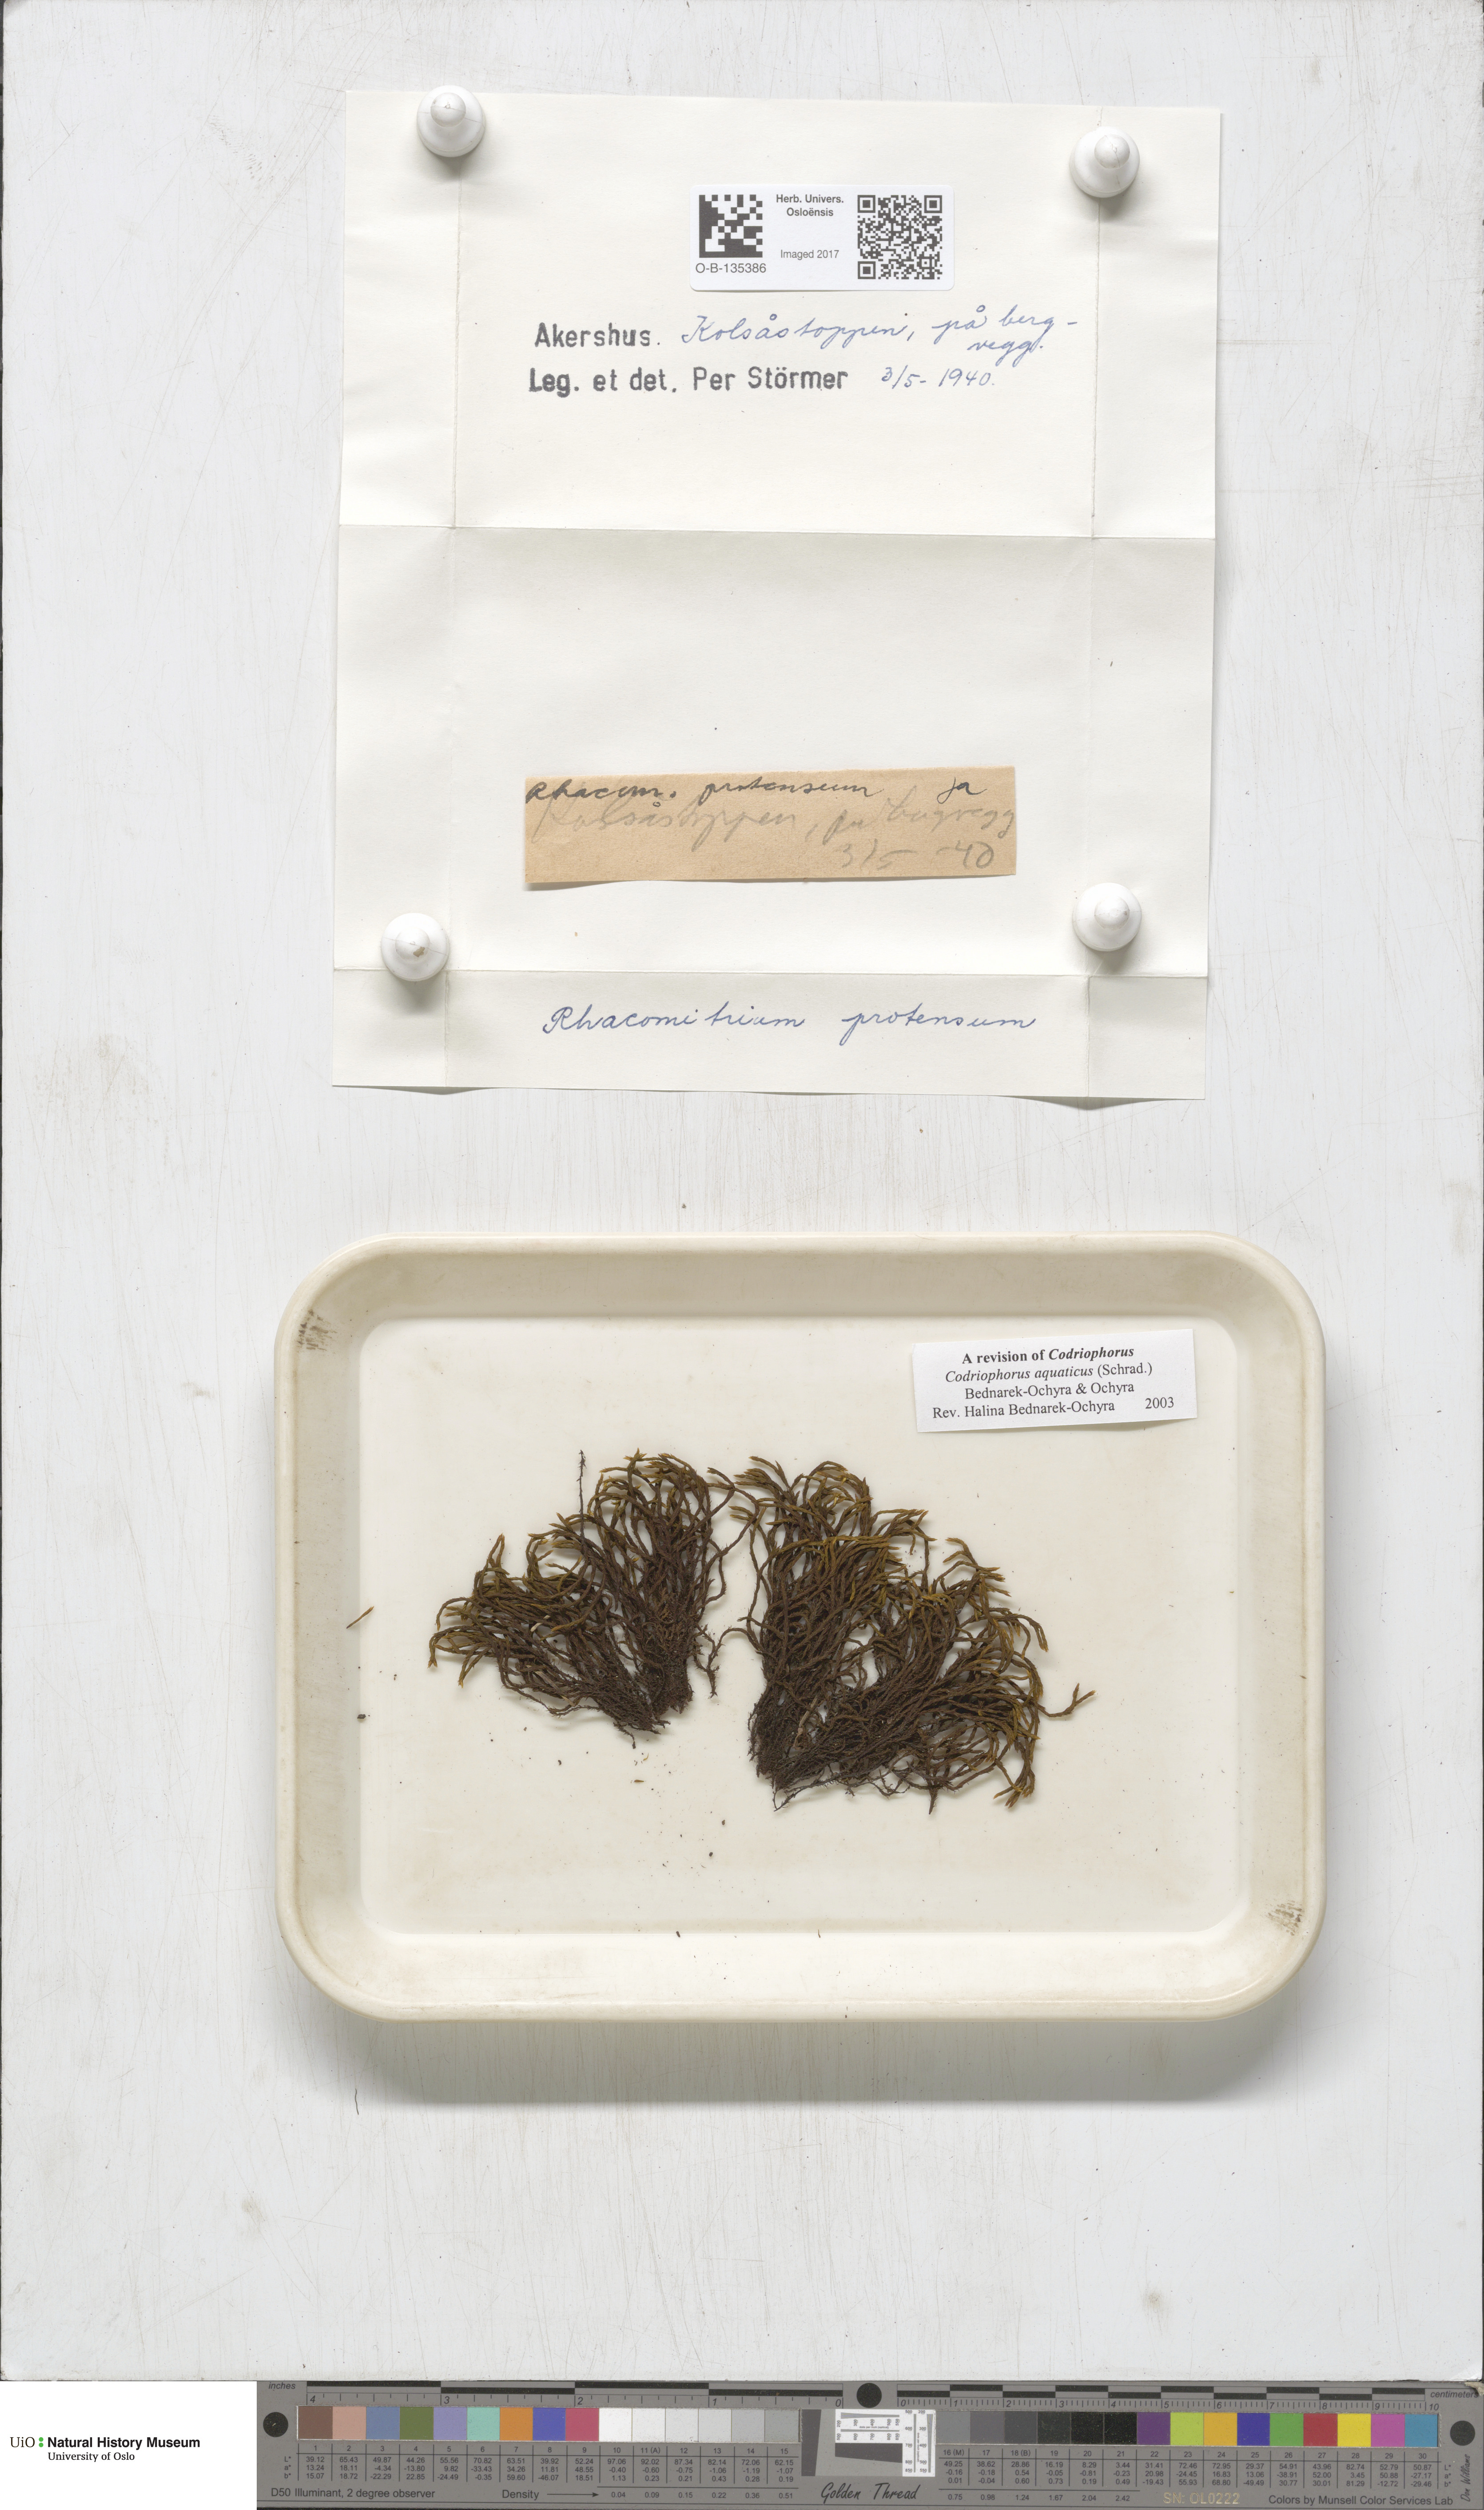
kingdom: Plantae
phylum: Bryophyta
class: Bryopsida
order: Grimmiales
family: Grimmiaceae
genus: Codriophorus
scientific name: Codriophorus aquaticus
